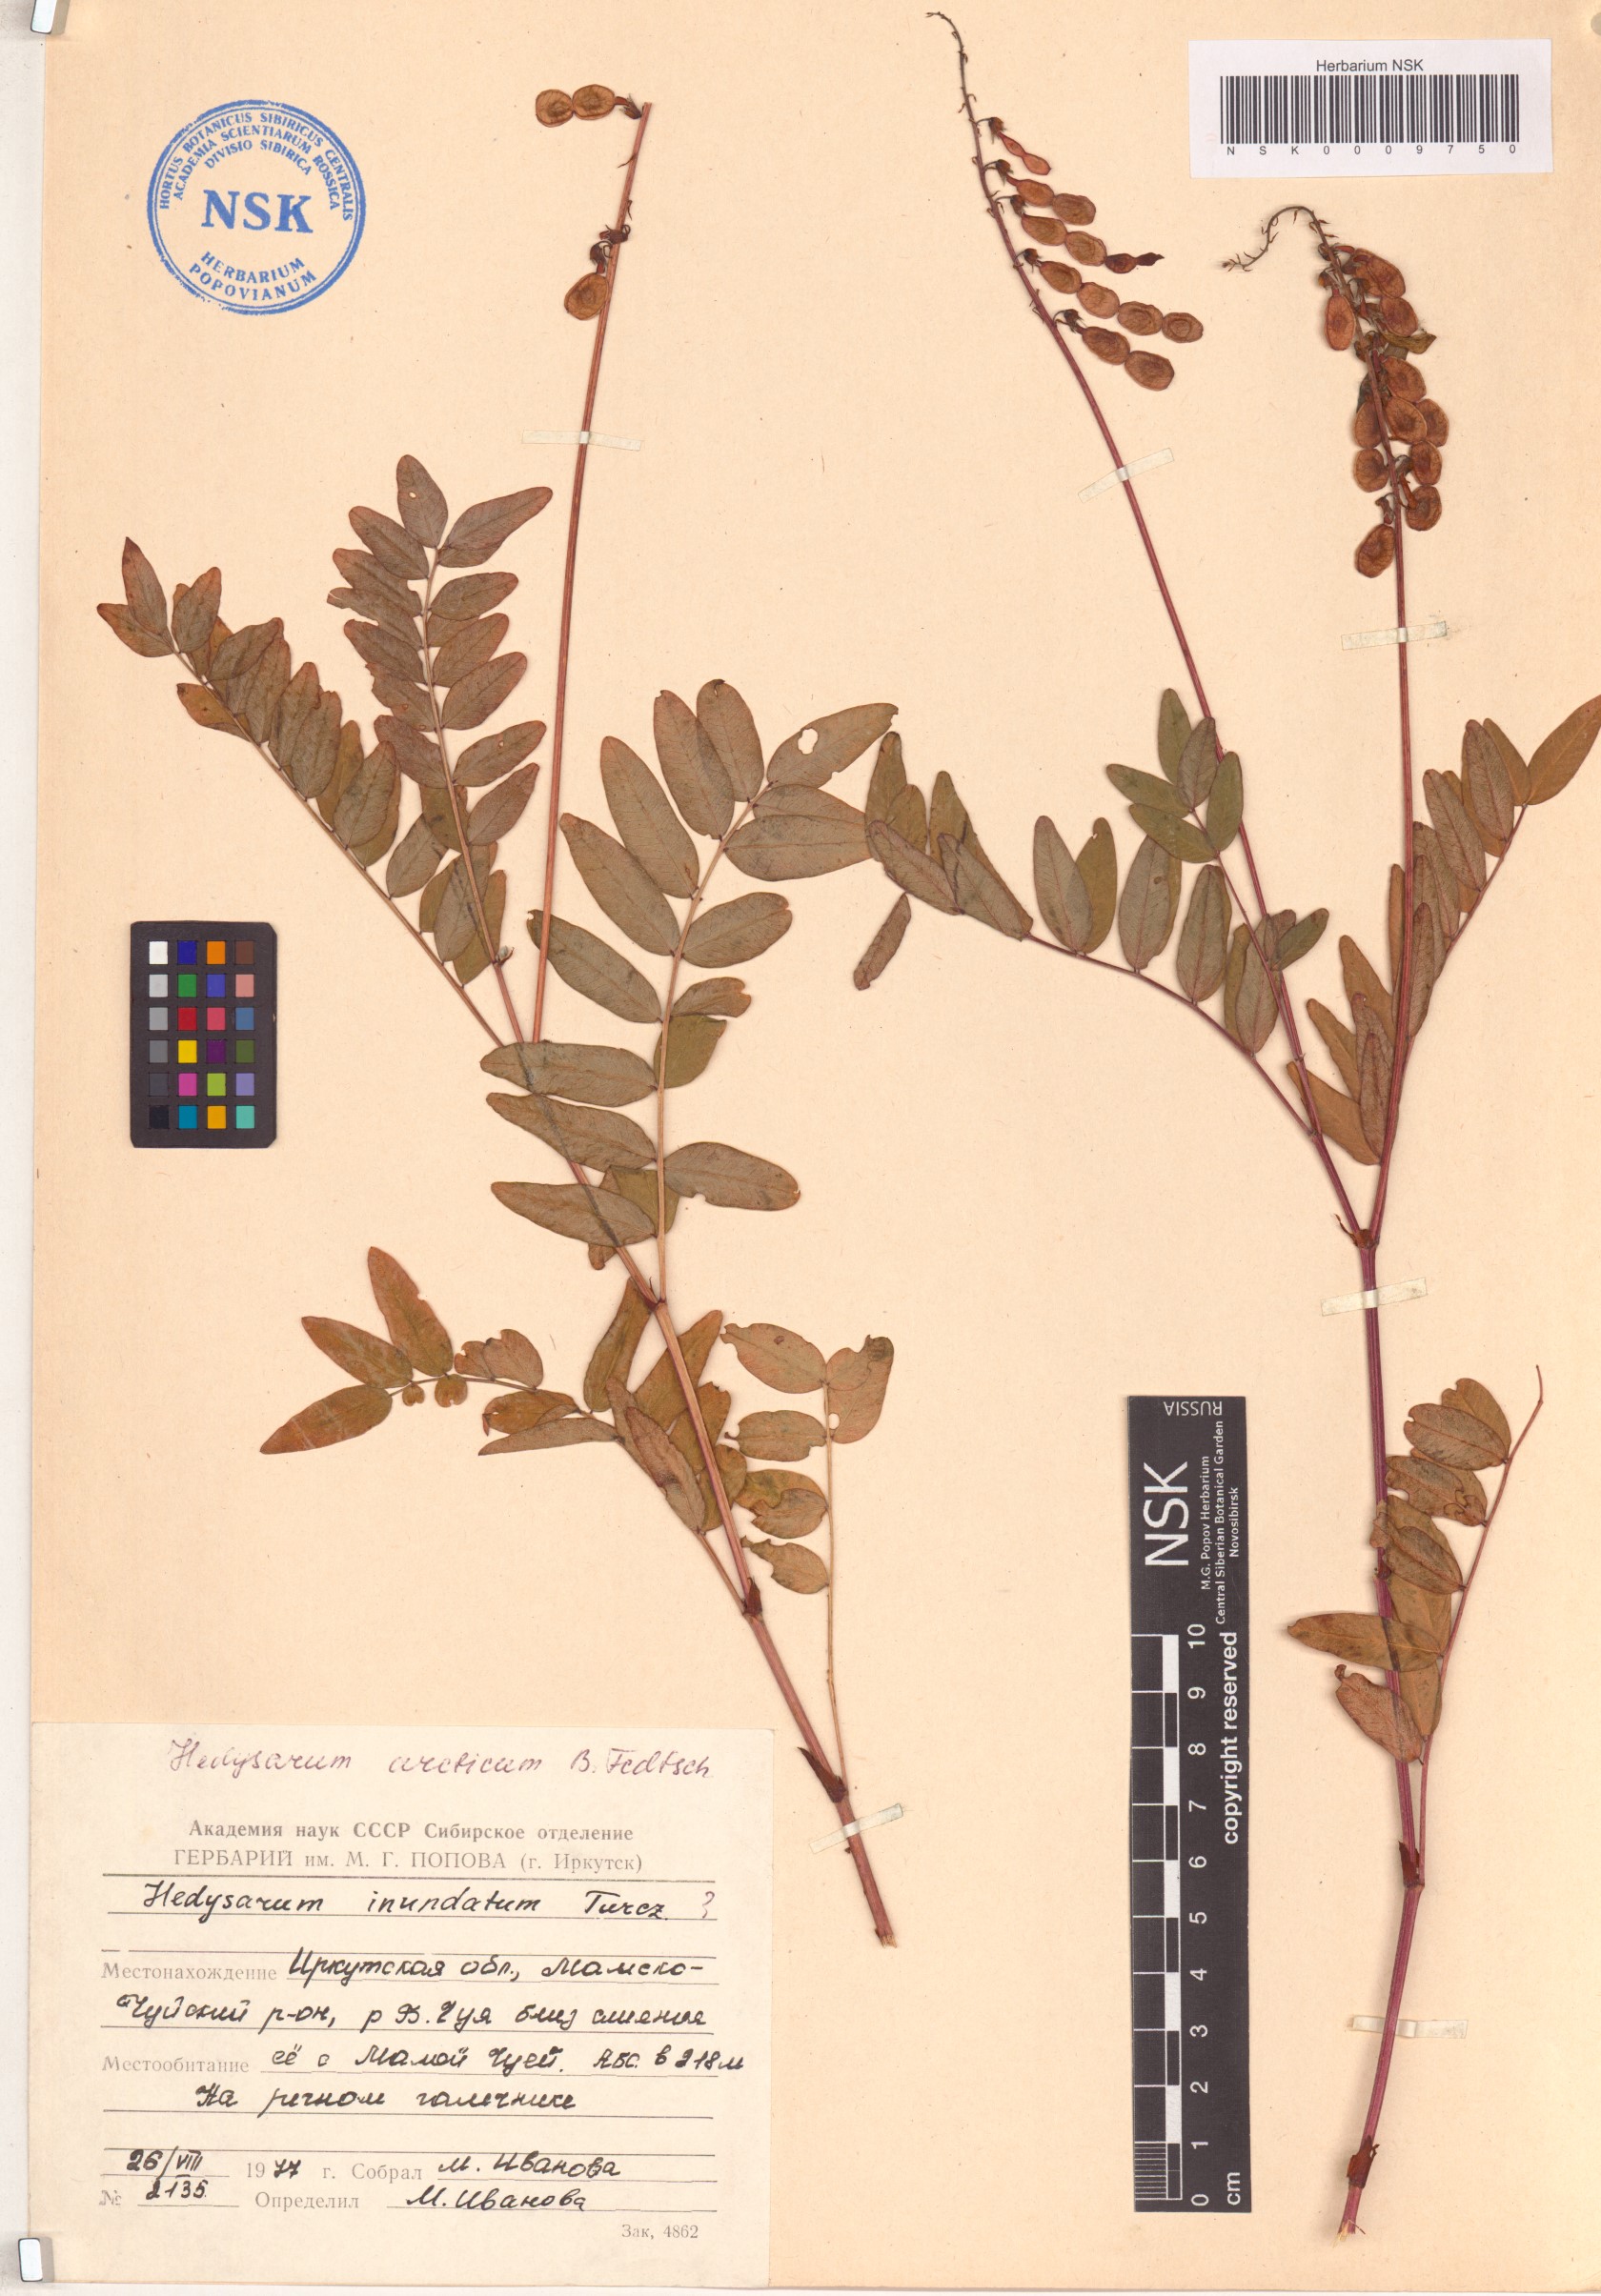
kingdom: Plantae
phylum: Tracheophyta
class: Magnoliopsida
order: Fabales
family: Fabaceae
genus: Hedysarum
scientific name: Hedysarum hedysaroides
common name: Alpine french-honeysuckle
